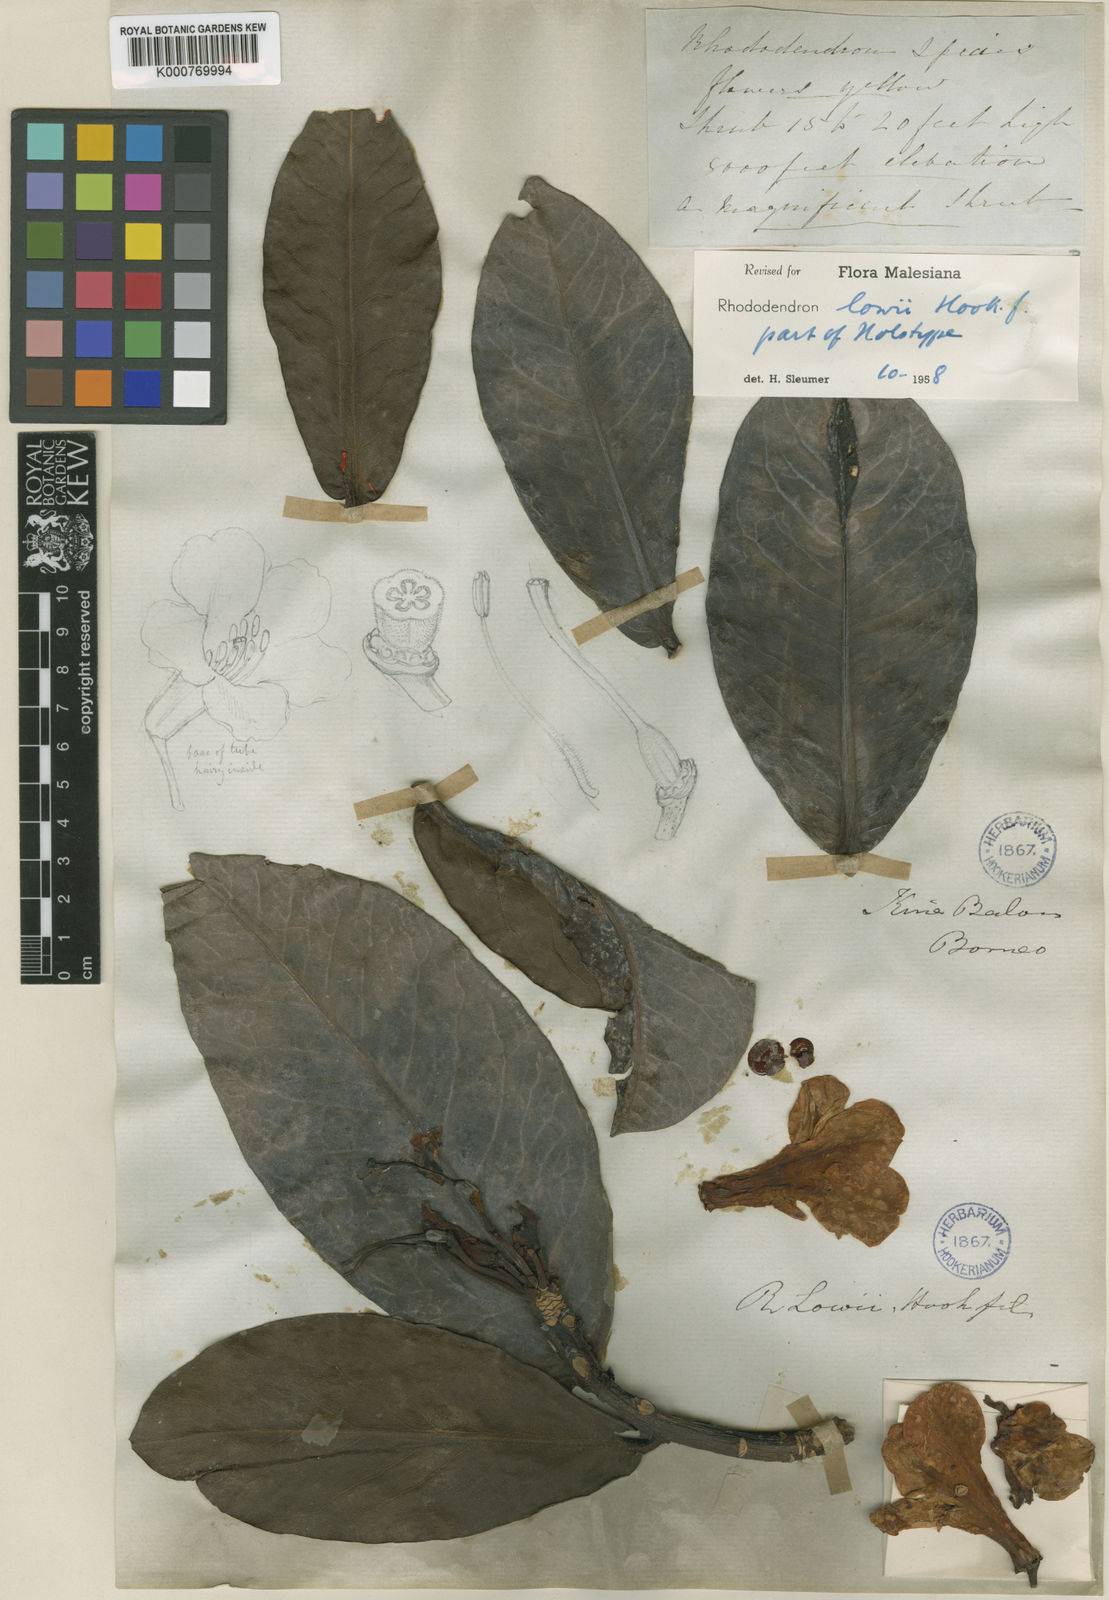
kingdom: Plantae
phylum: Tracheophyta
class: Magnoliopsida
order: Ericales
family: Ericaceae
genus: Rhododendron
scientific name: Rhododendron lowii
